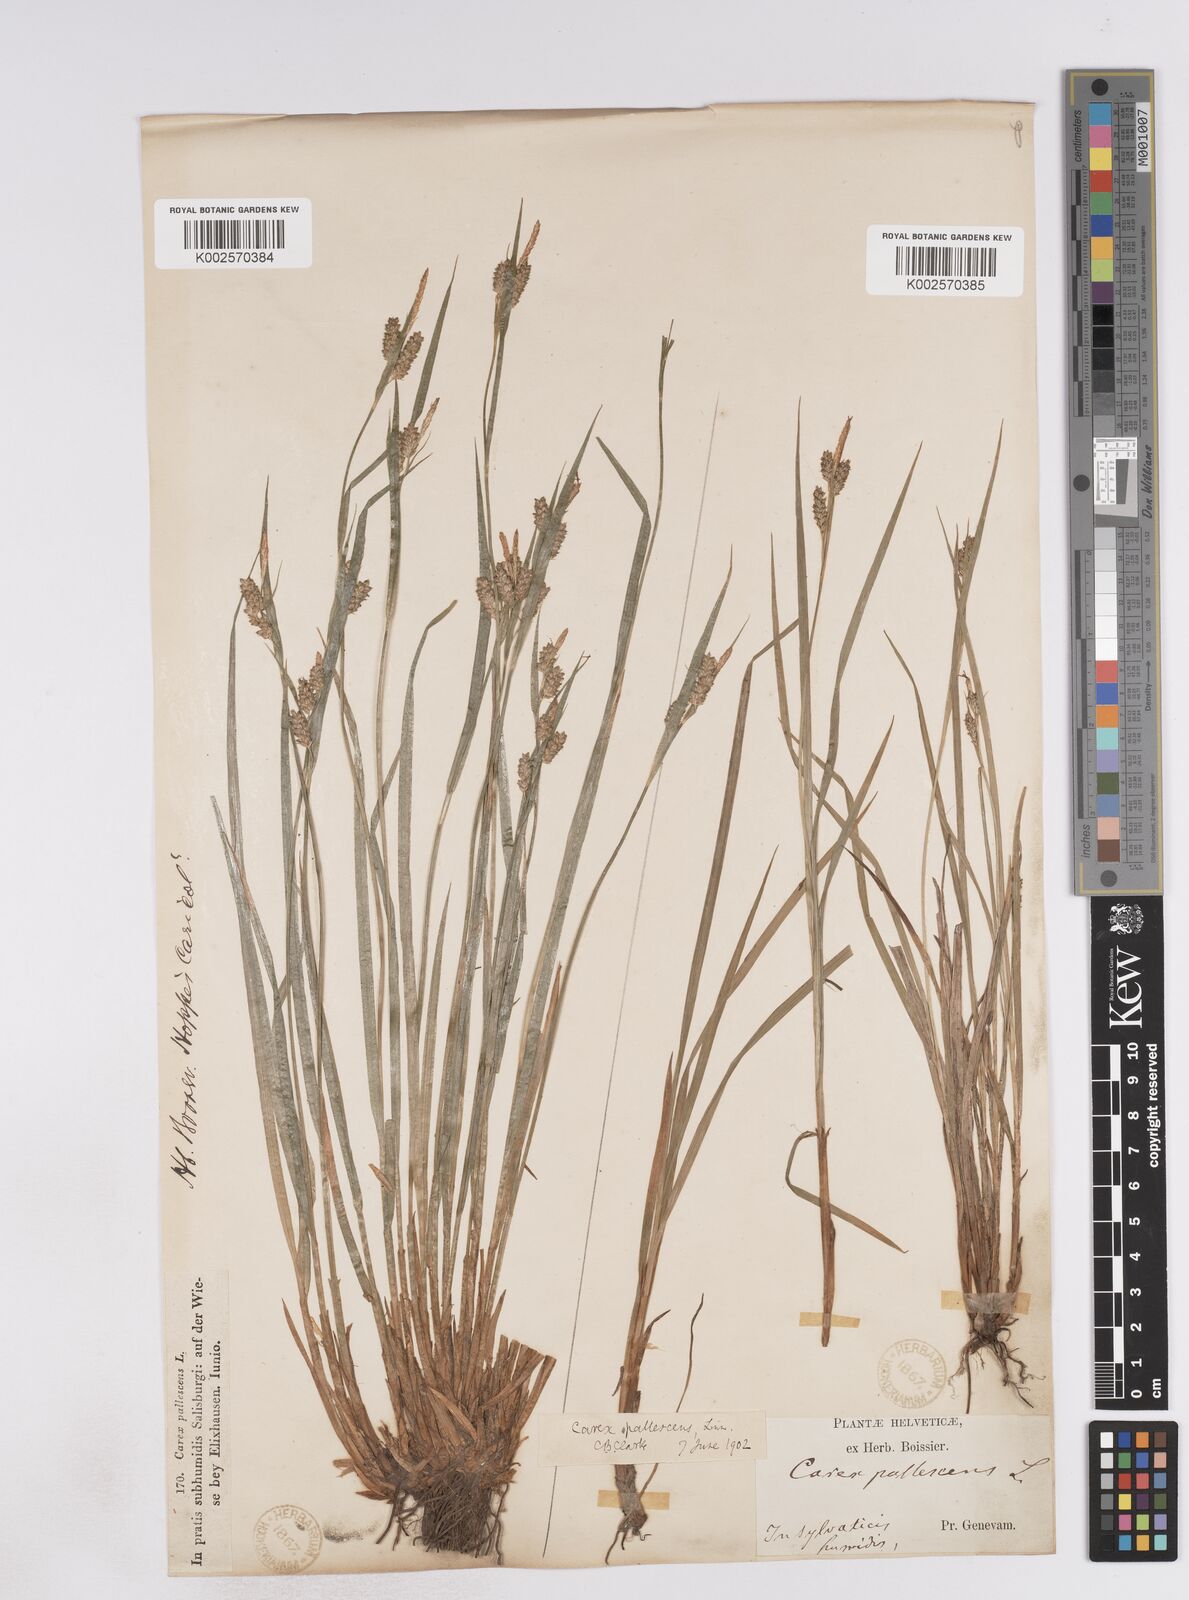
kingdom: Plantae
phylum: Tracheophyta
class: Liliopsida
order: Poales
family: Cyperaceae
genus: Carex
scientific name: Carex pallescens
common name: Pale sedge
